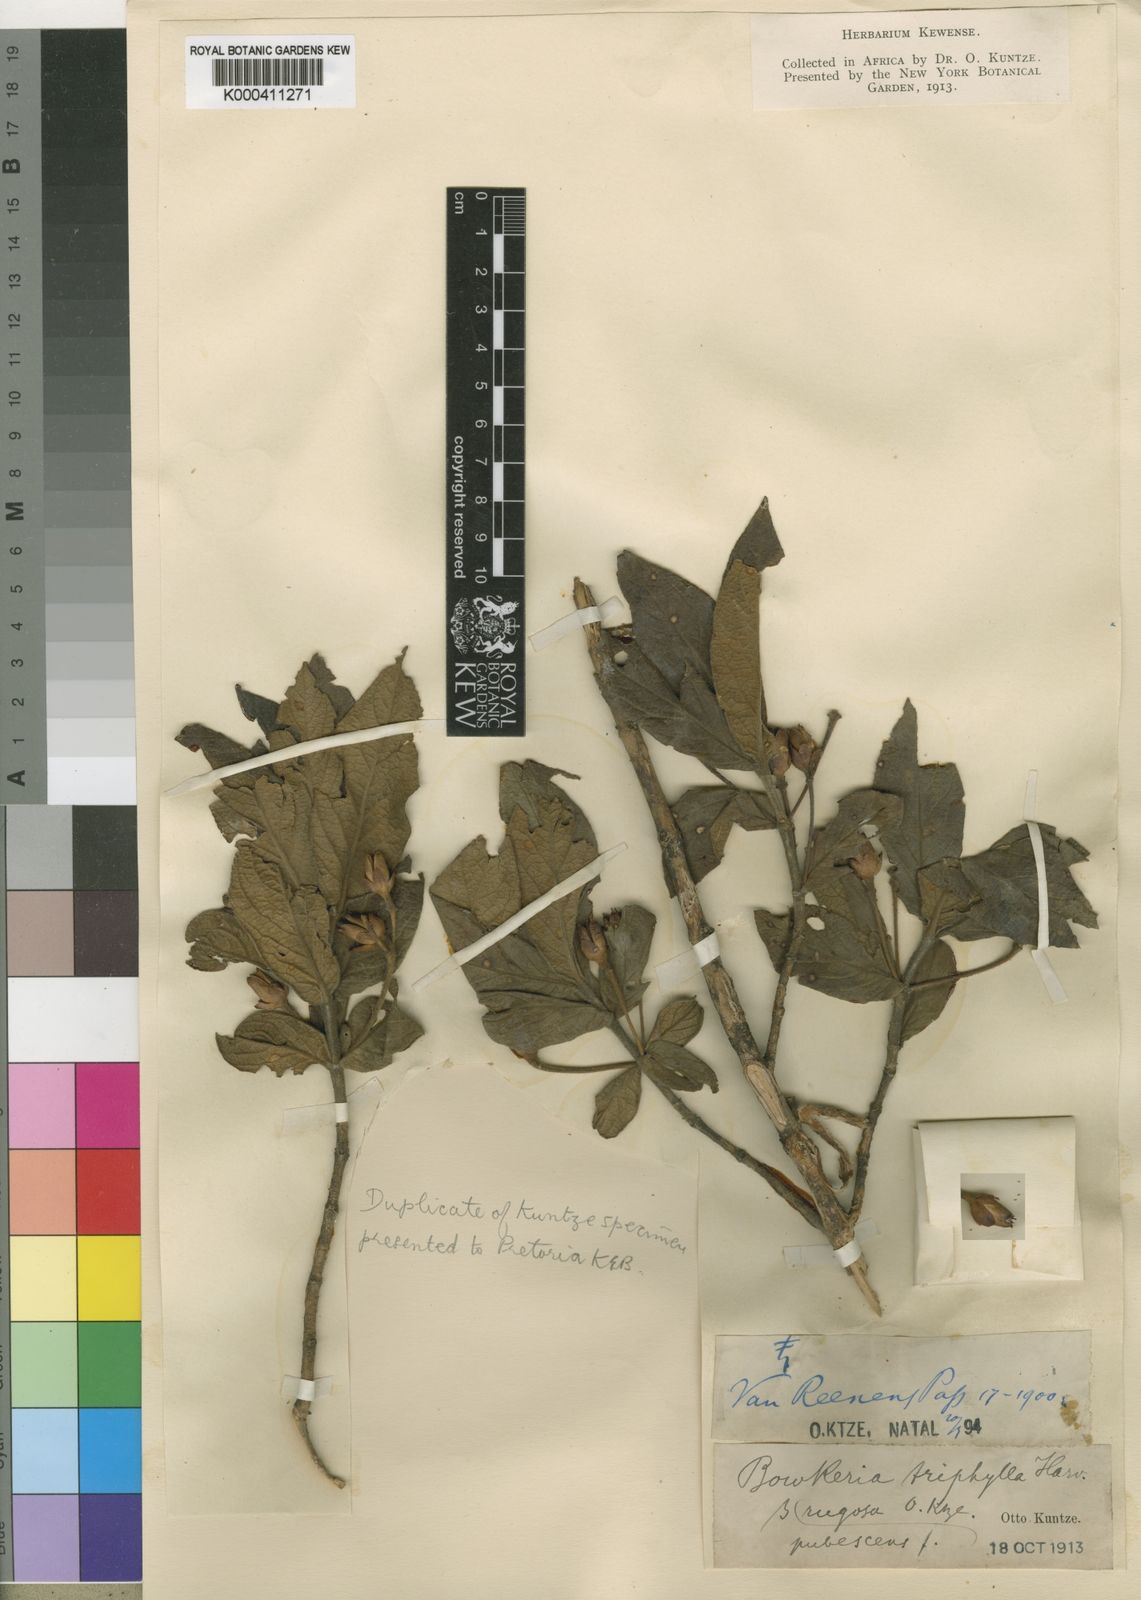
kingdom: Plantae
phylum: Tracheophyta
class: Magnoliopsida
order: Lamiales
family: Stilbaceae
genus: Bowkeria
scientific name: Bowkeria verticillata
